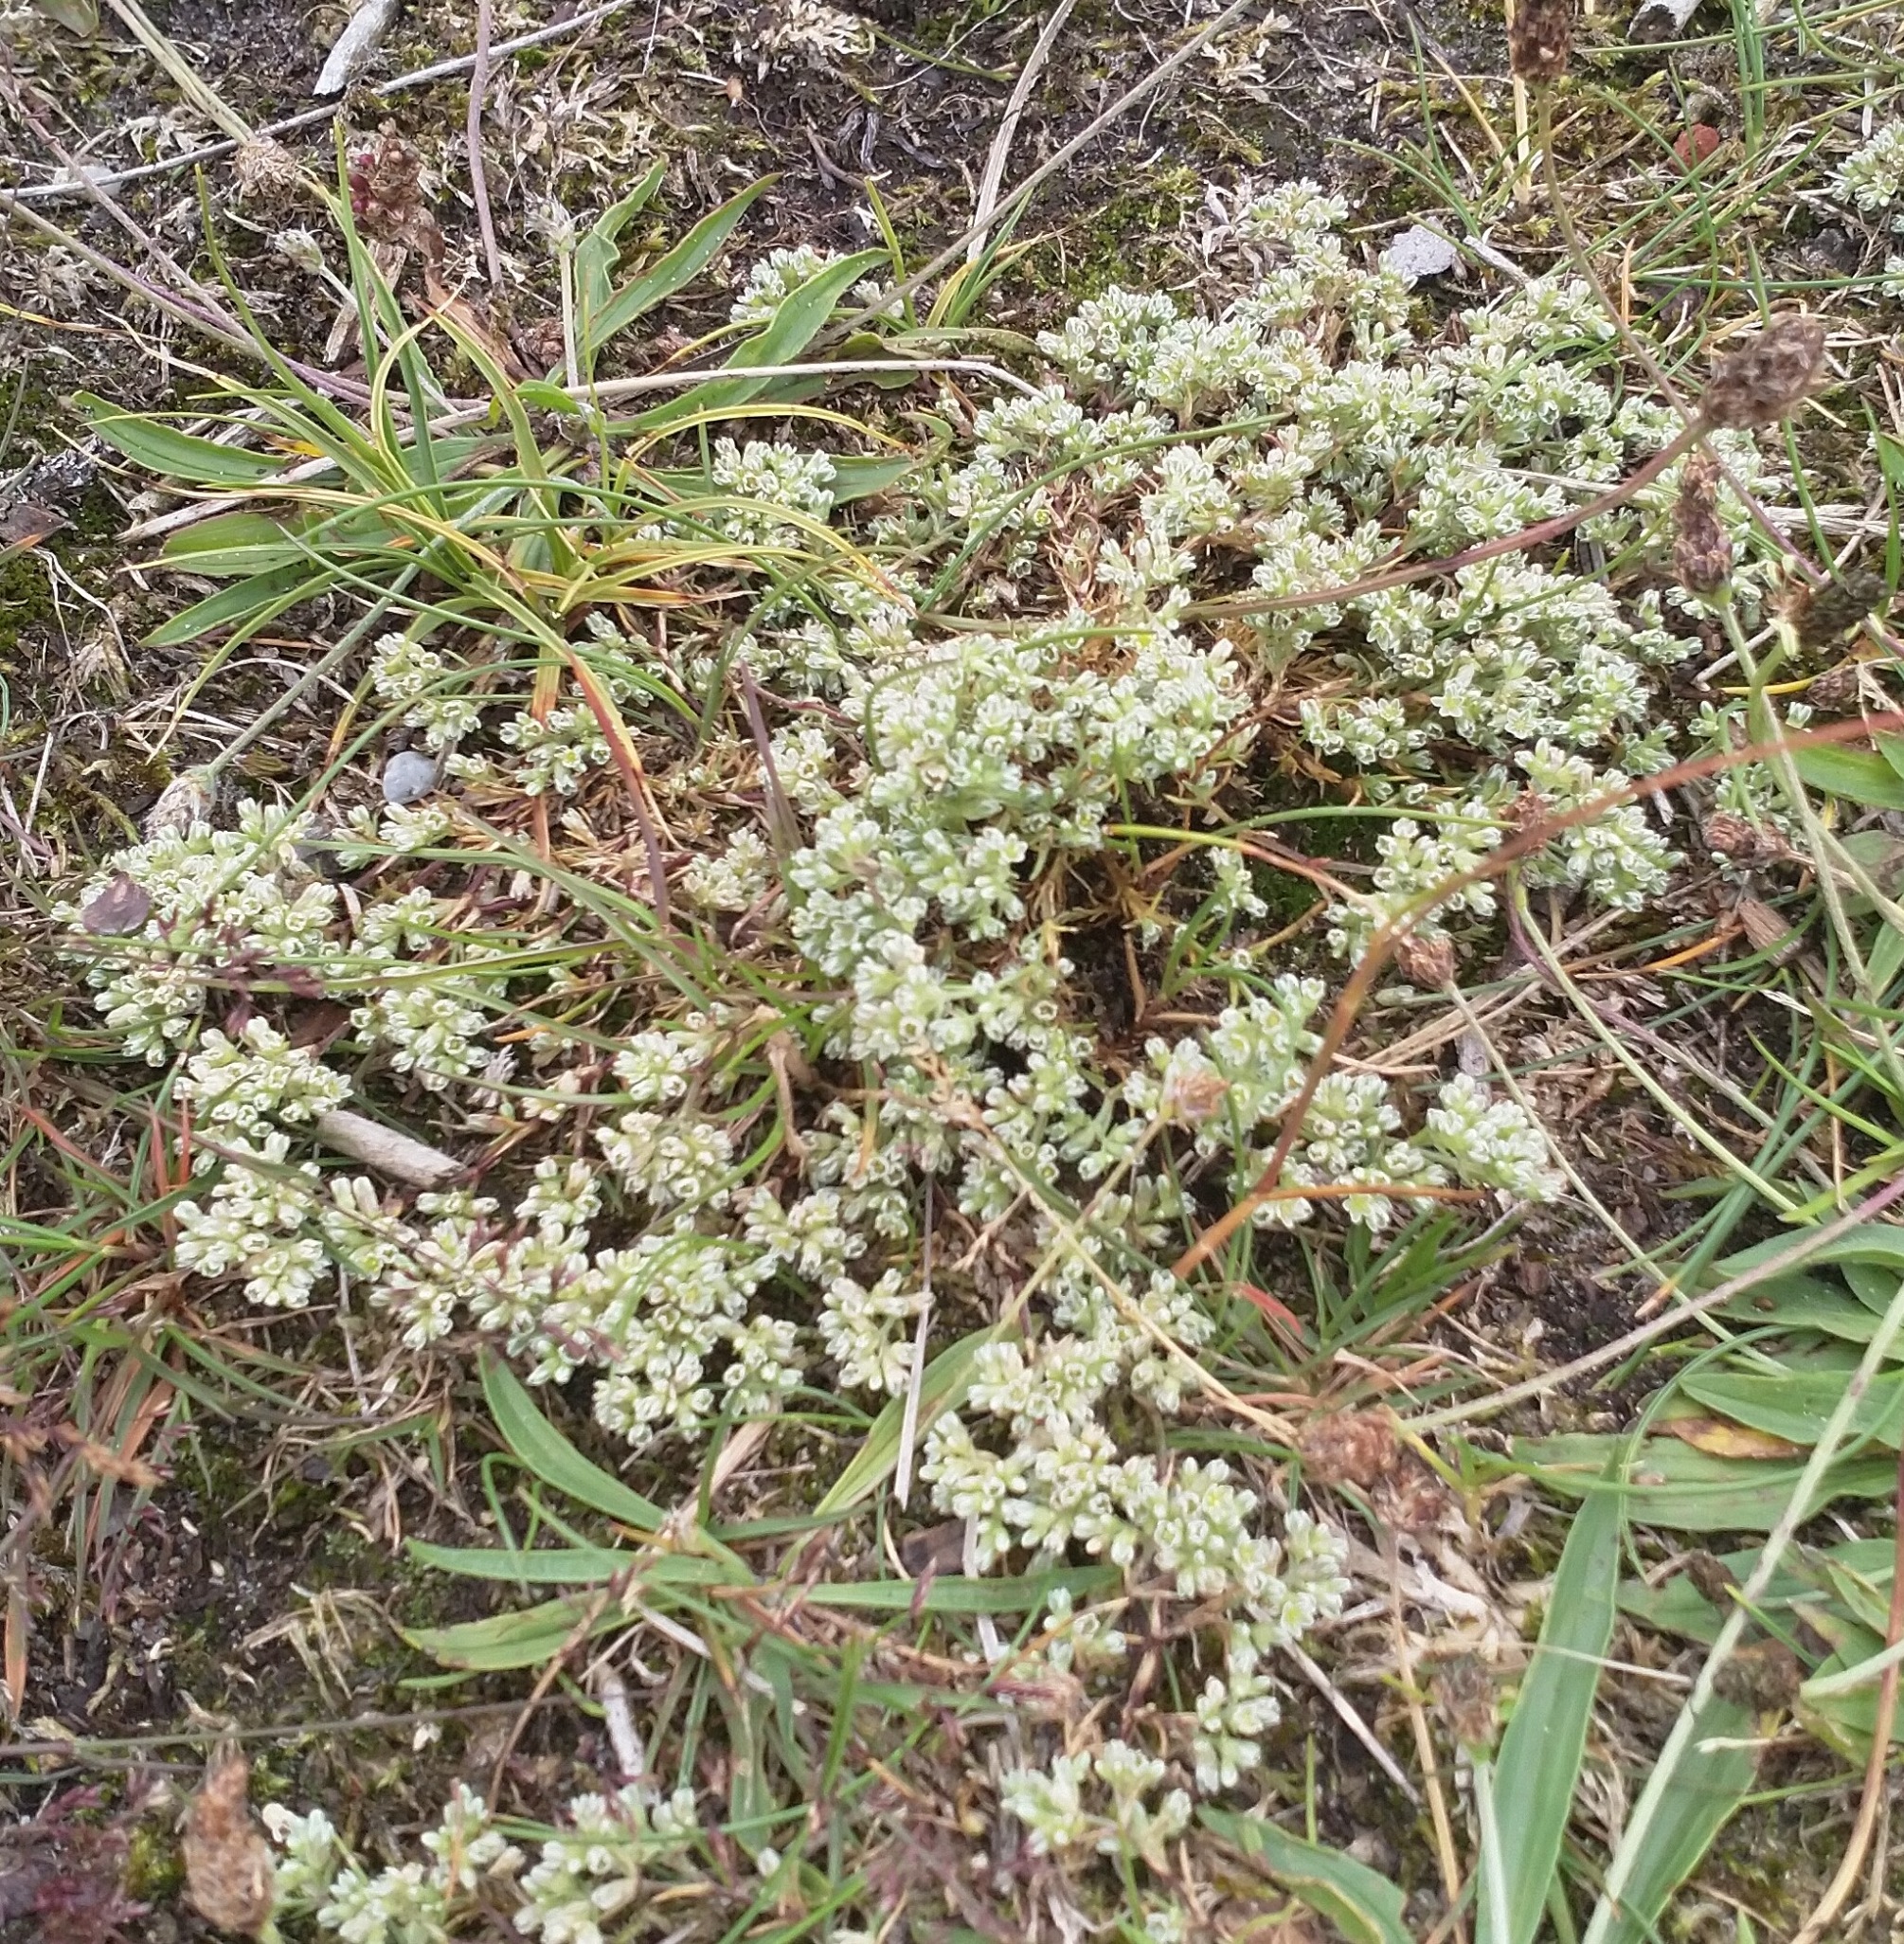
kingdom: Plantae
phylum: Tracheophyta
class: Magnoliopsida
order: Caryophyllales
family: Caryophyllaceae
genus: Scleranthus
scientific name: Scleranthus perennis
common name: Flerårig knavel
